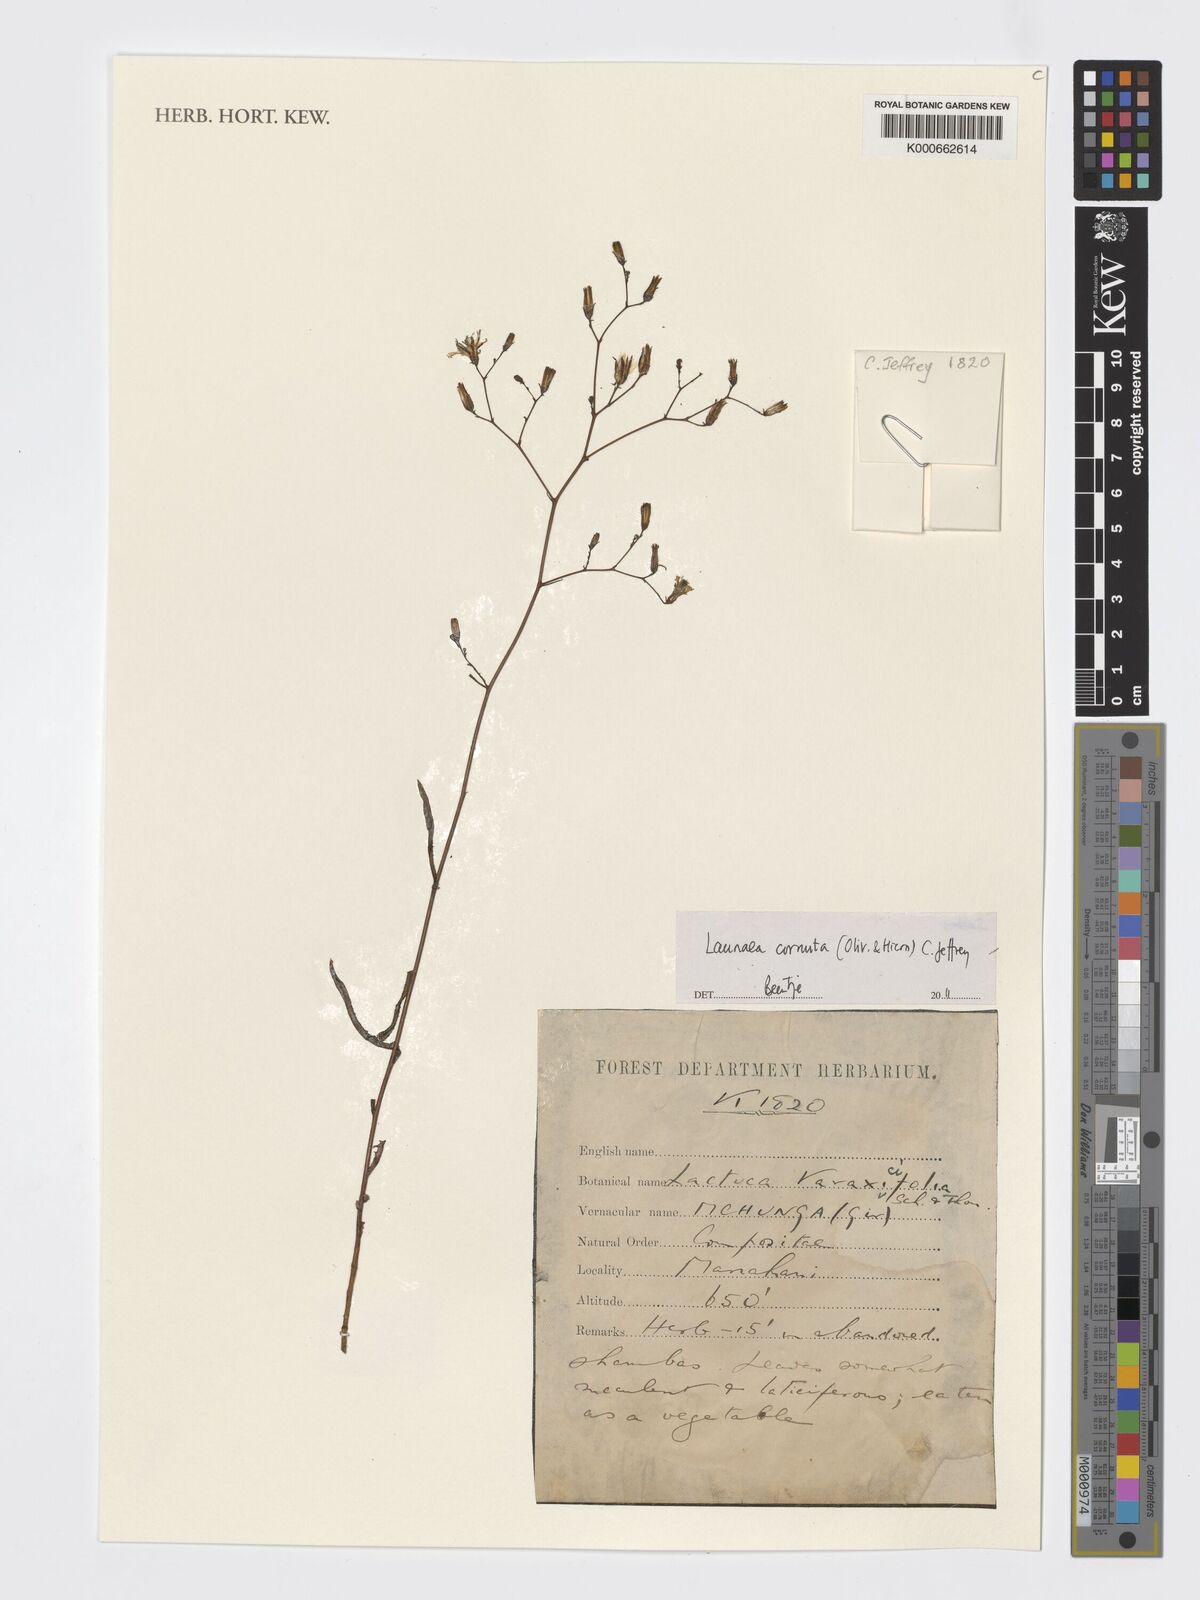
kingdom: Plantae
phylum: Tracheophyta
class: Magnoliopsida
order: Asterales
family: Asteraceae
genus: Launaea
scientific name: Launaea cornuta
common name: Bitter-lettuce
